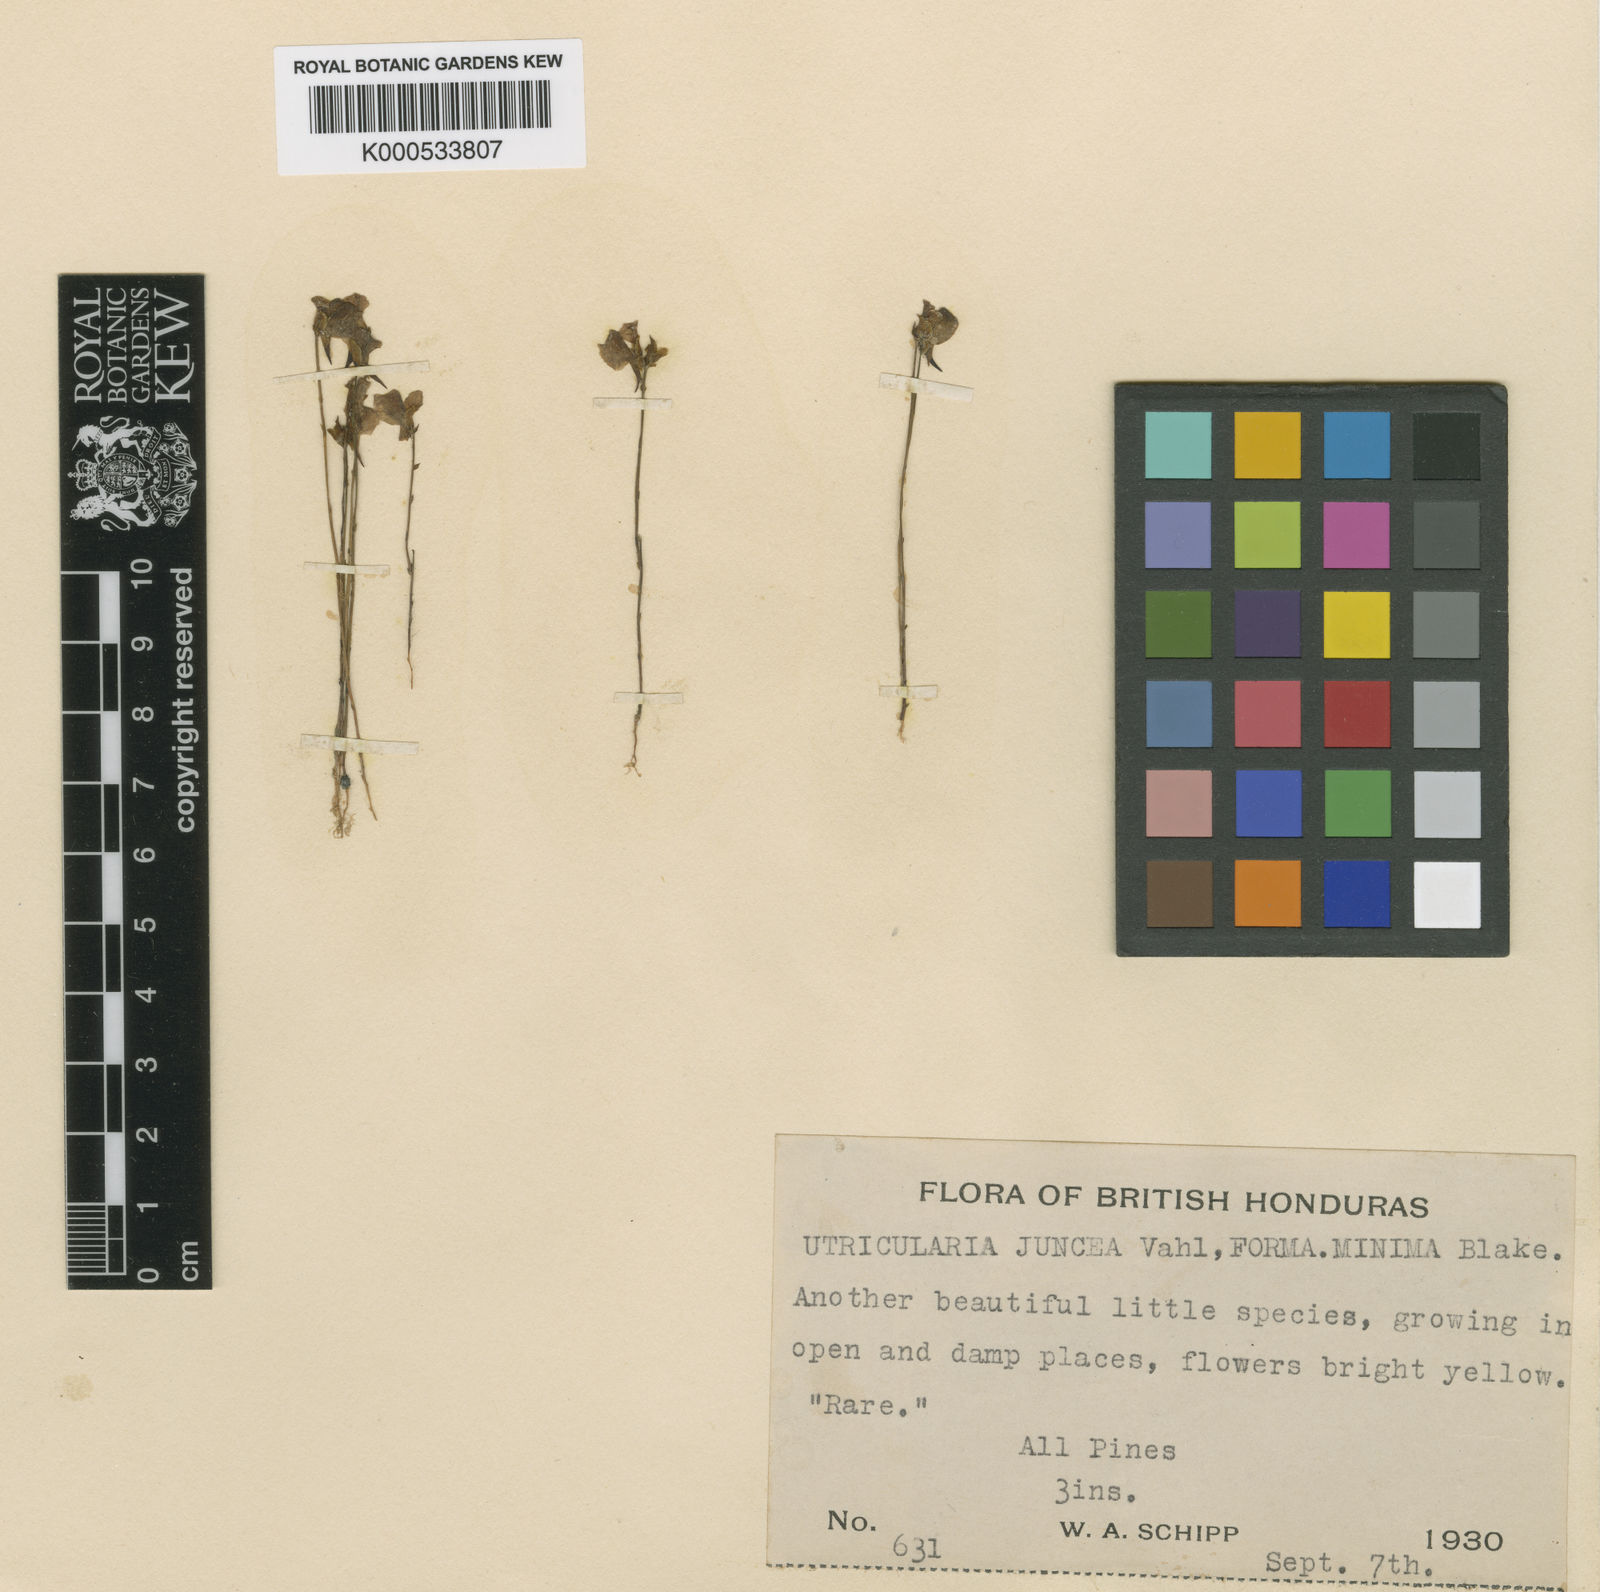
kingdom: Plantae
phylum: Tracheophyta
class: Magnoliopsida
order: Lamiales
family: Lentibulariaceae
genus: Utricularia
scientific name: Utricularia juncea
